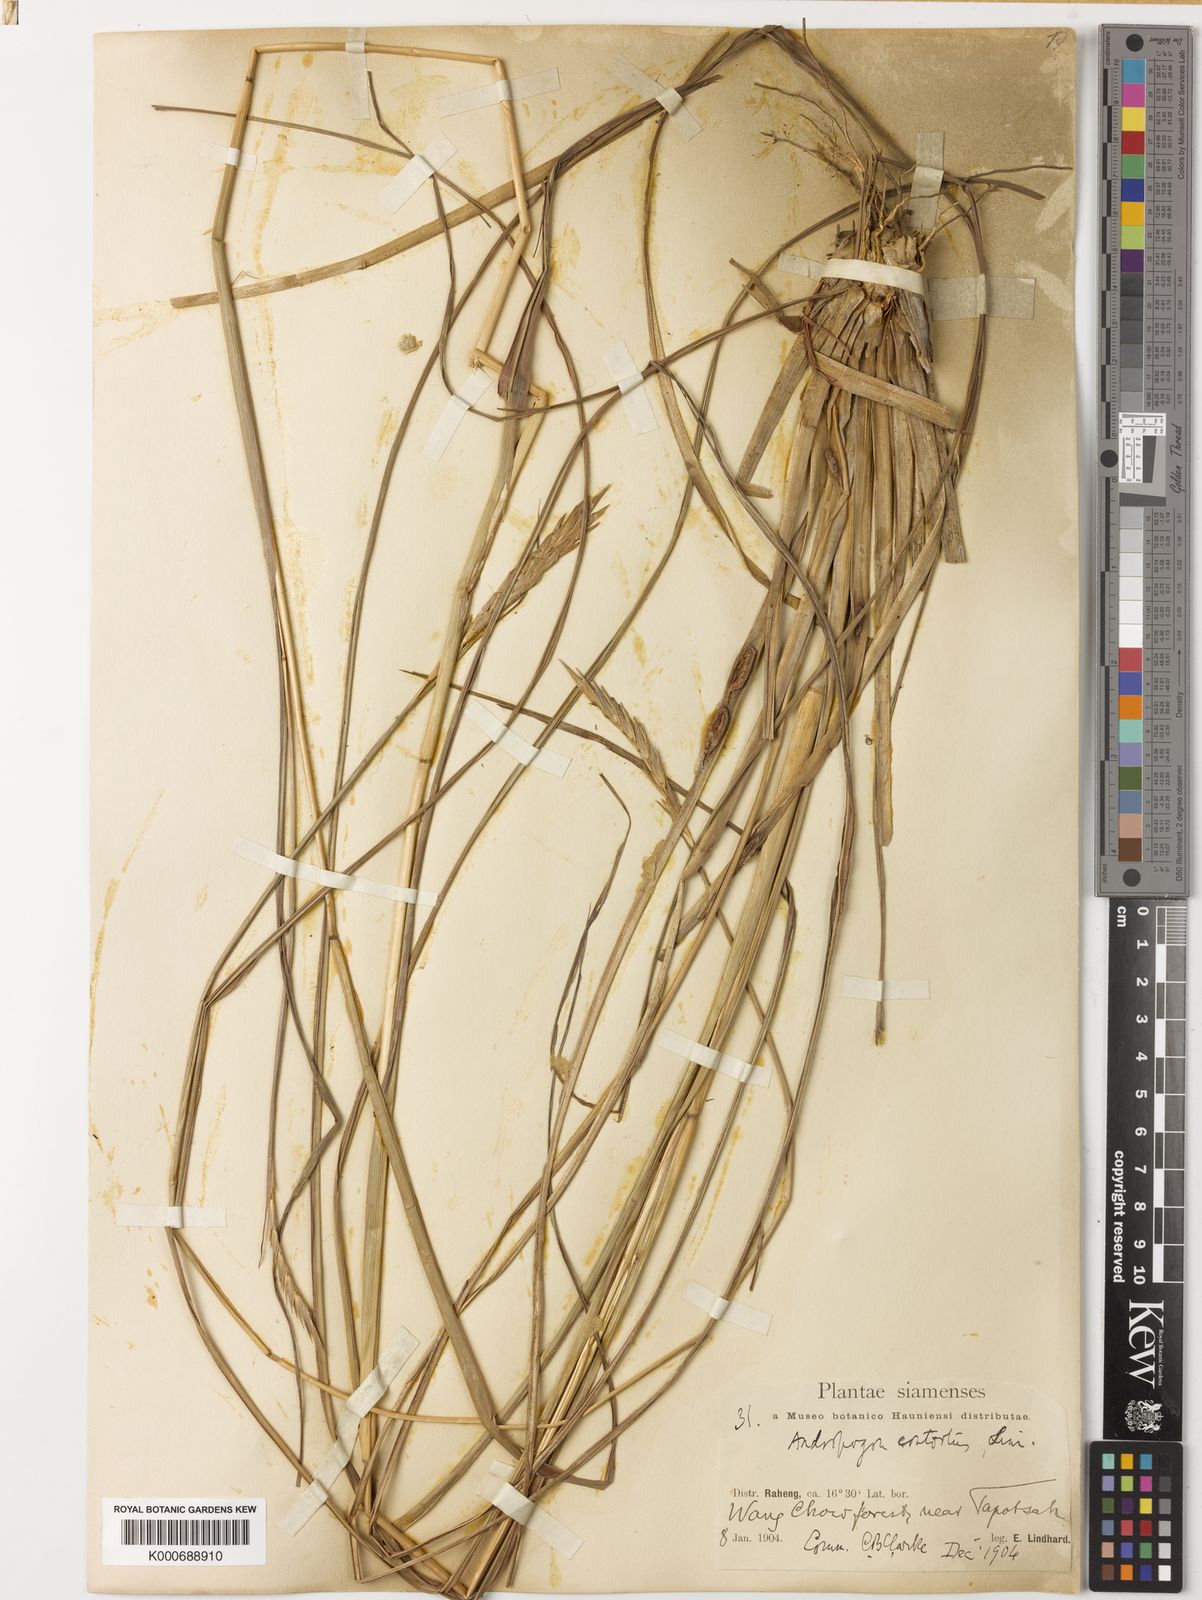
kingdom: Plantae
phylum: Tracheophyta
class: Liliopsida
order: Poales
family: Poaceae
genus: Heteropogon
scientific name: Heteropogon triticeus
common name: Sugar grass
